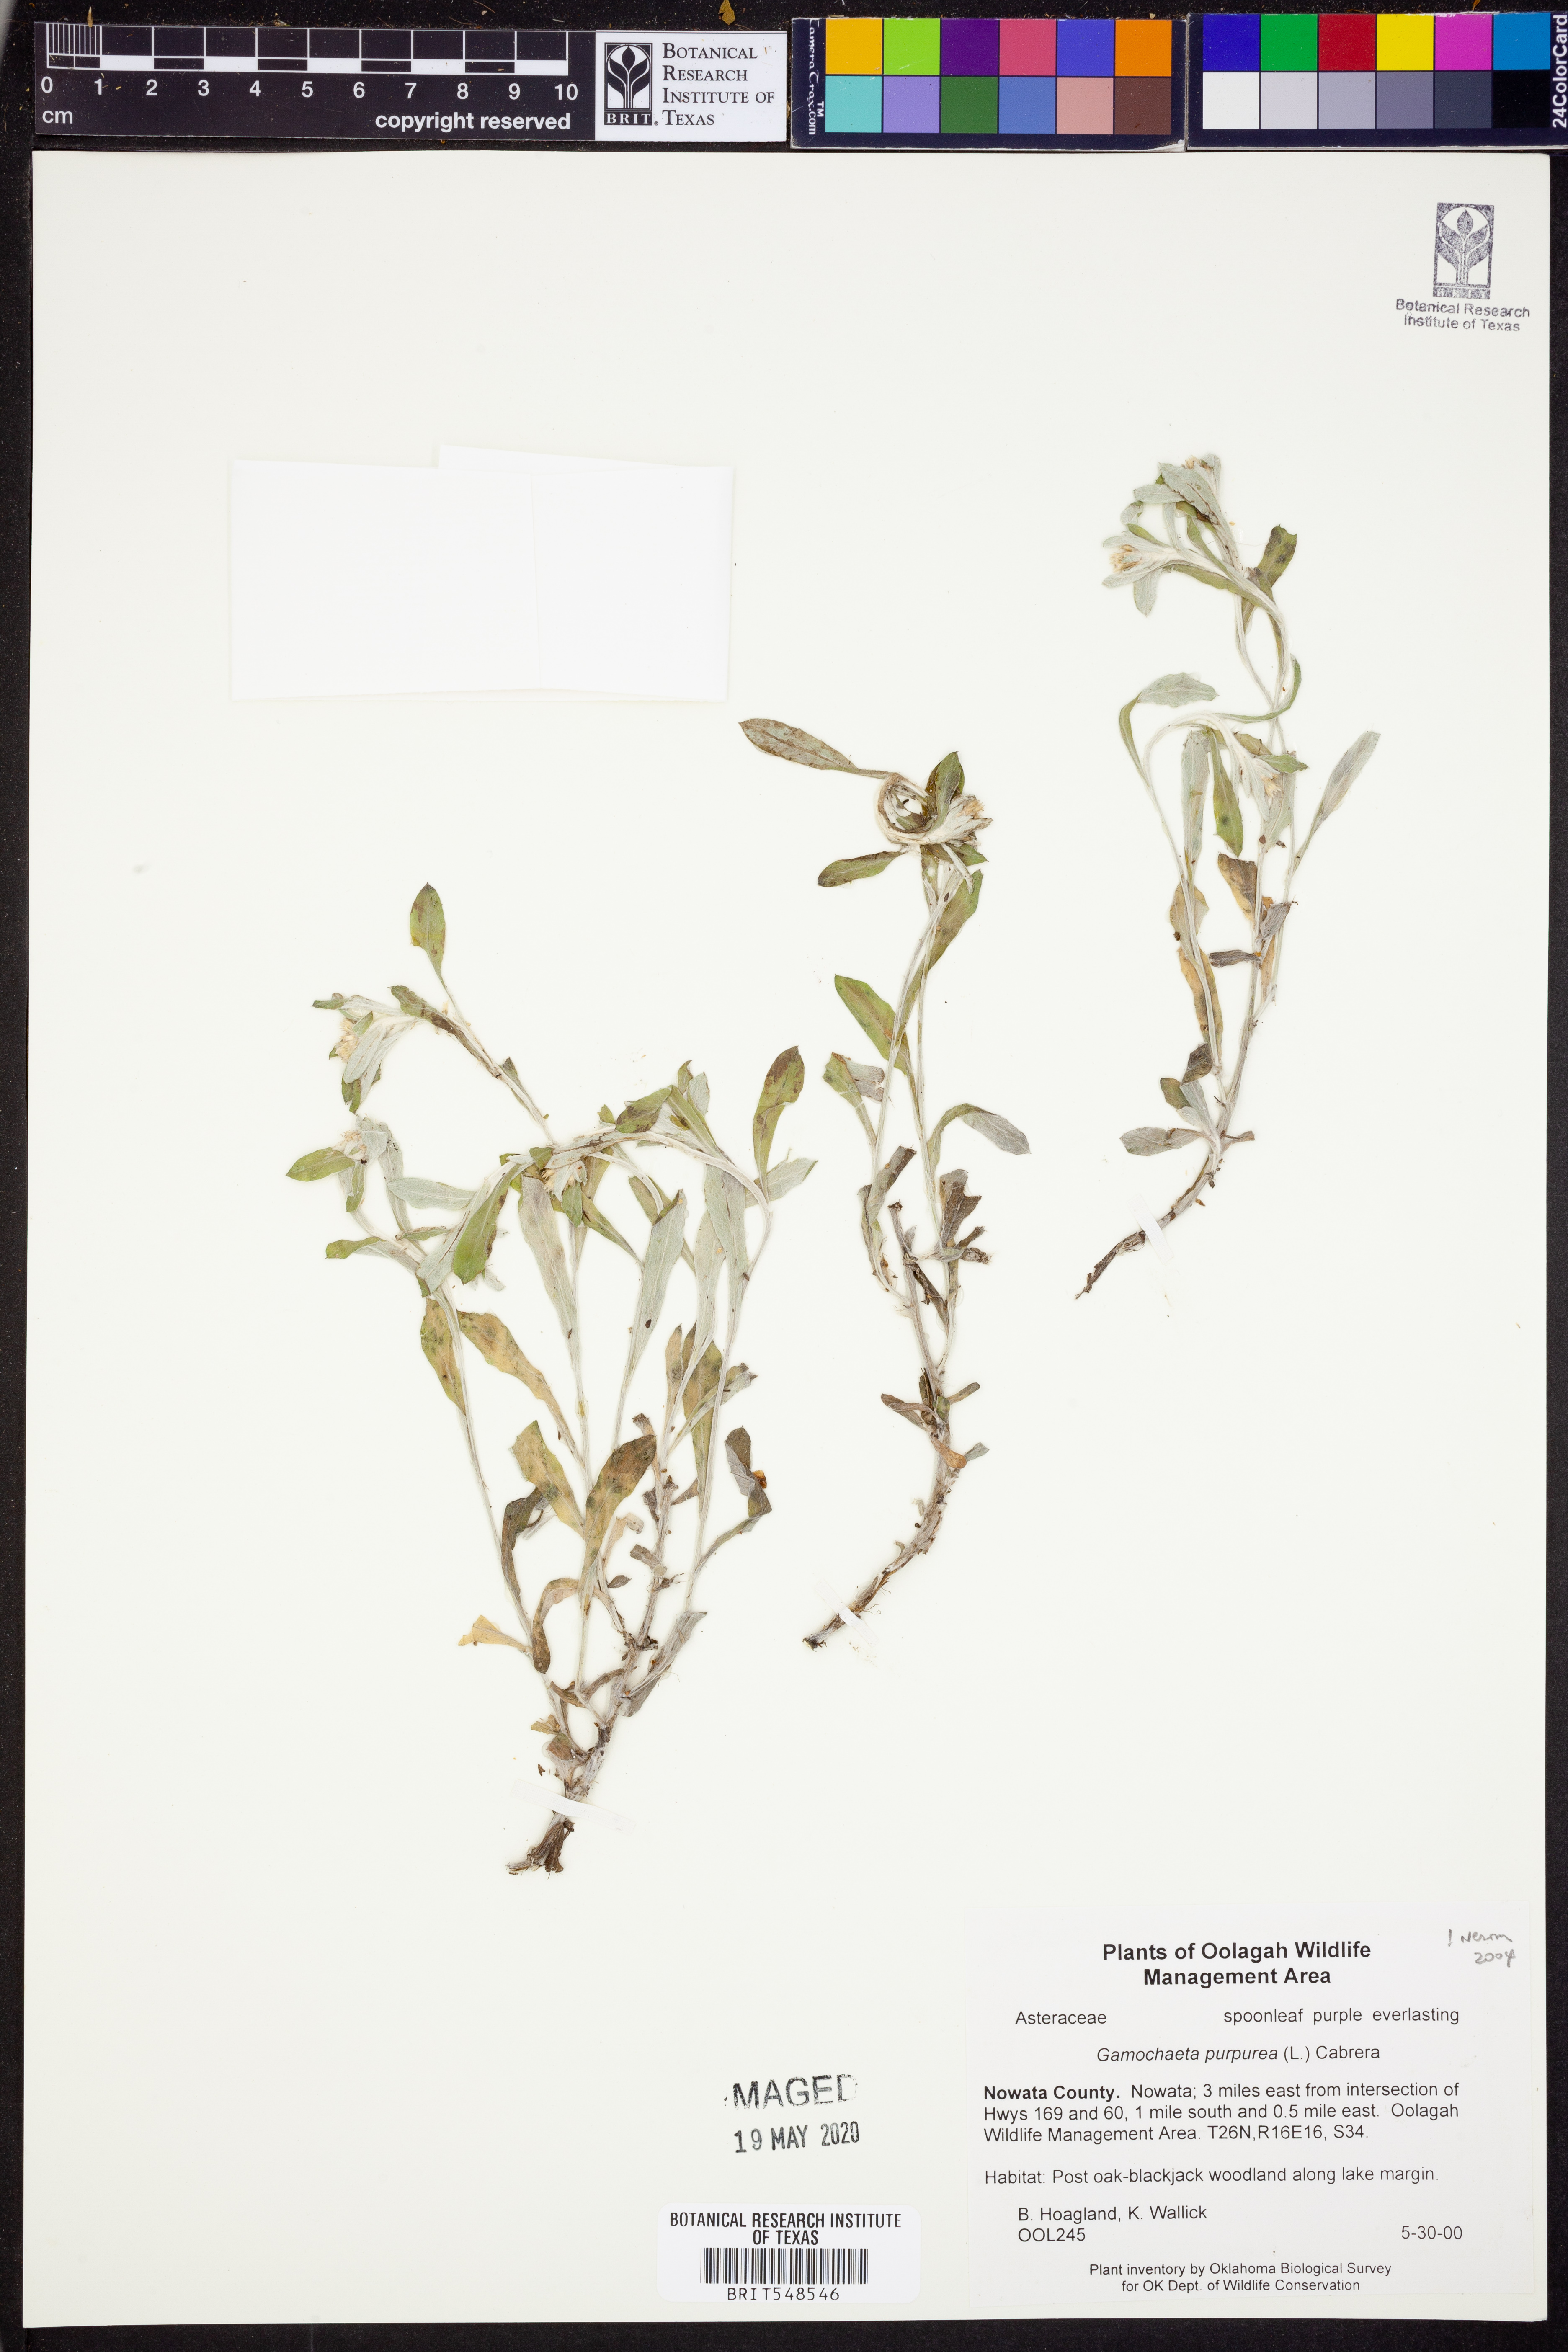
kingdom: Plantae
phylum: Tracheophyta
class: Magnoliopsida
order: Asterales
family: Asteraceae
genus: Gamochaeta
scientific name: Gamochaeta purpurea
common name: Purple cudweed
